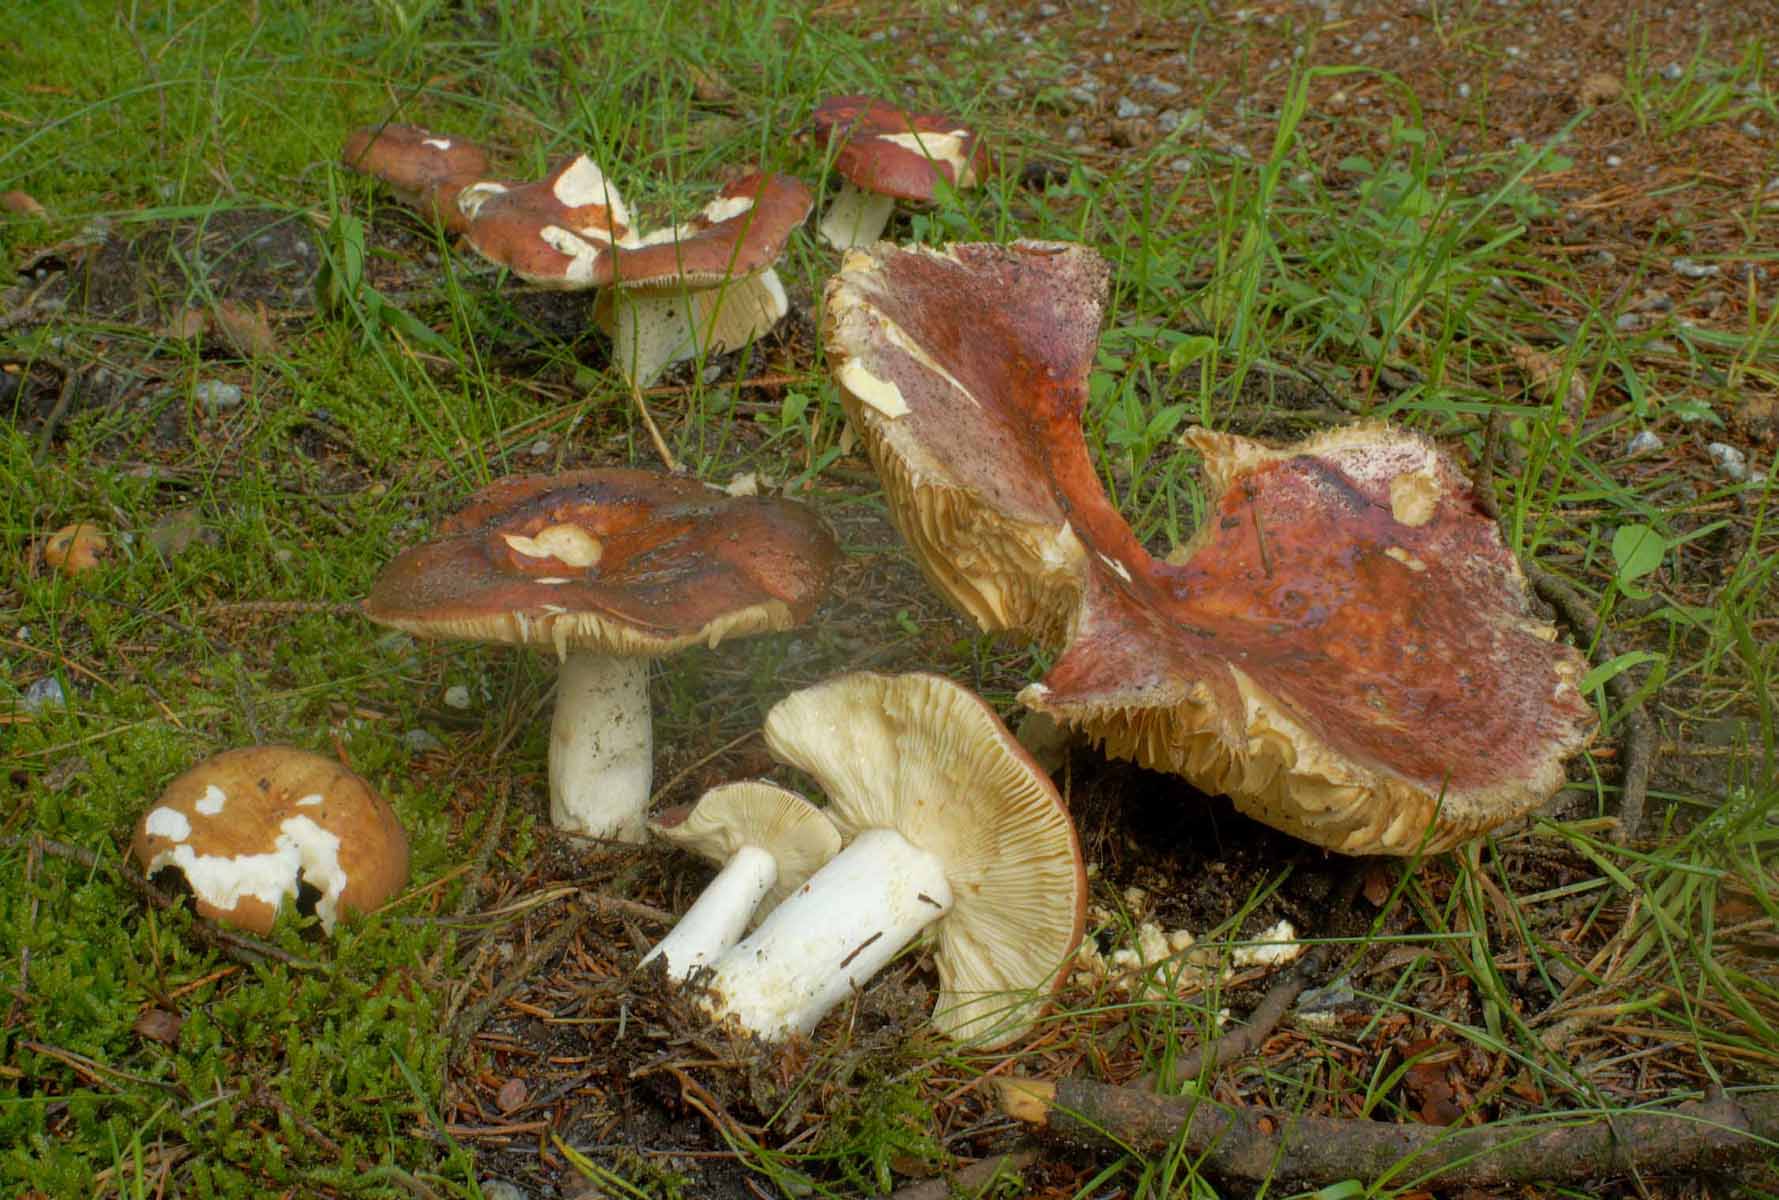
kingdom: Fungi
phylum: Basidiomycota
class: Agaricomycetes
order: Russulales
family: Russulaceae
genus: Russula
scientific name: Russula integra
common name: mandel-skørhat
